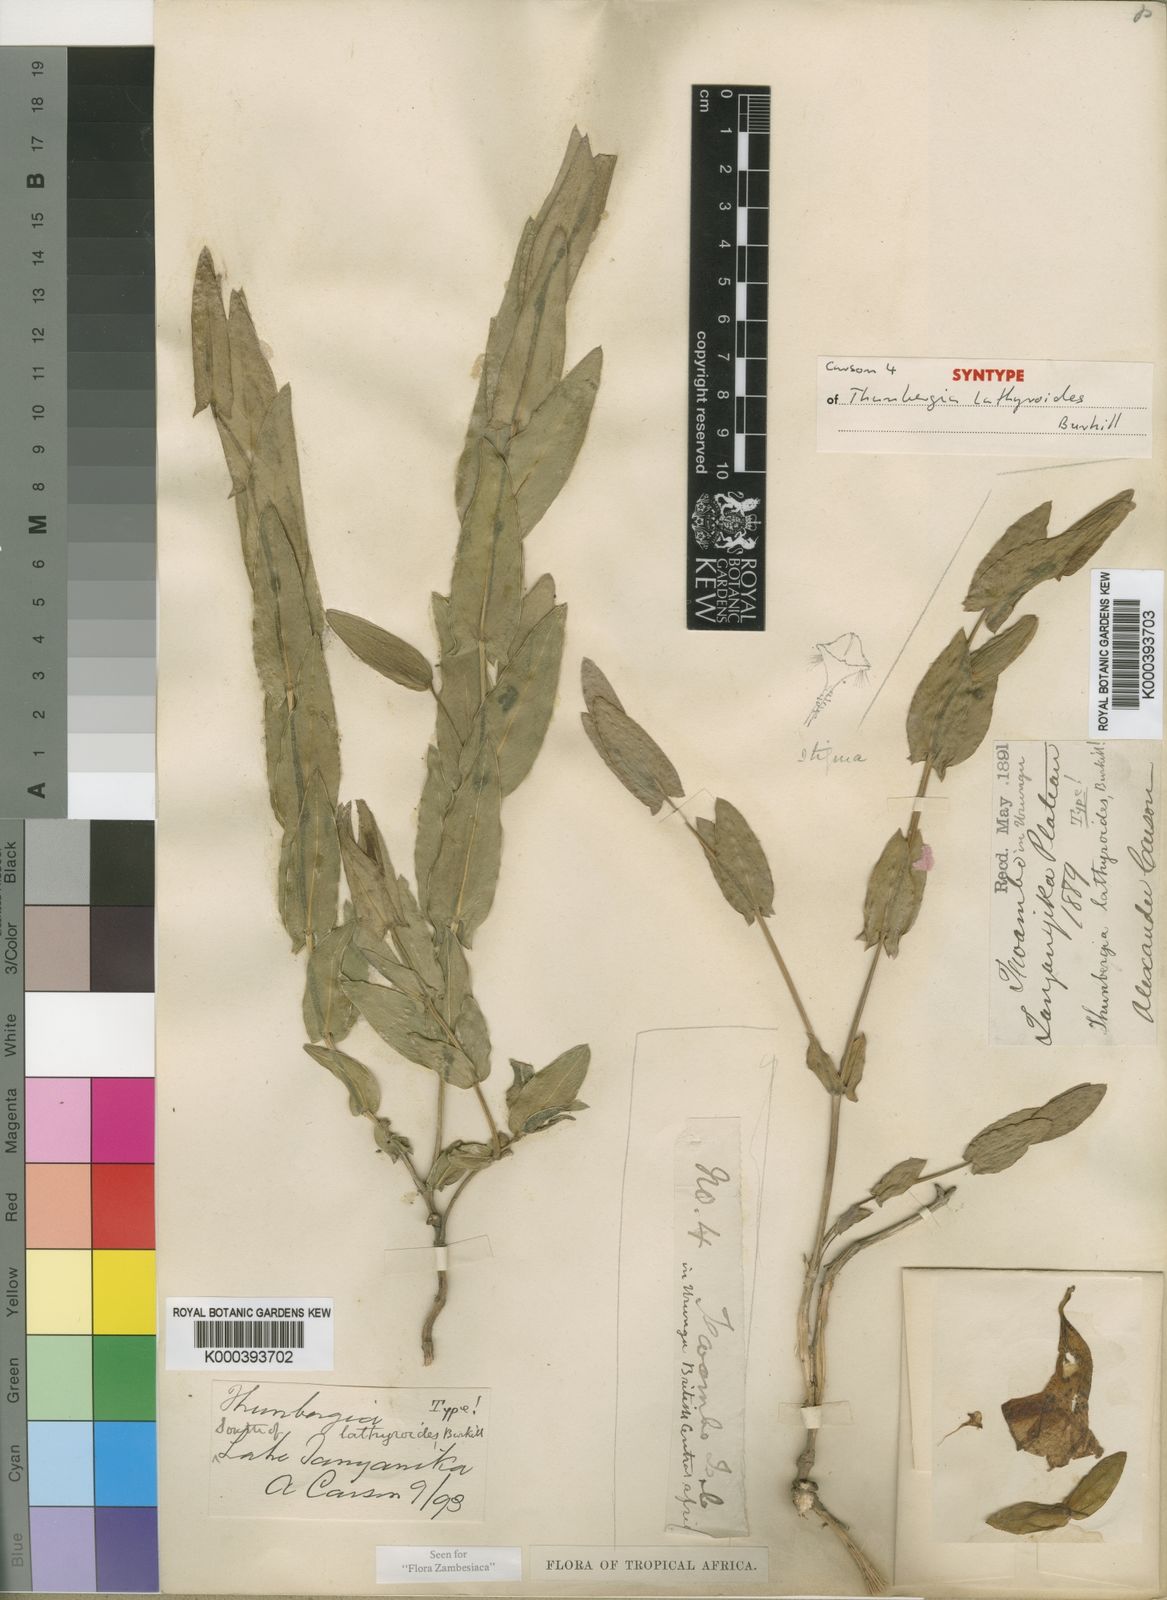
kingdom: Plantae
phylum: Tracheophyta
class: Magnoliopsida
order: Lamiales
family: Acanthaceae
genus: Thunbergia
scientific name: Thunbergia lathyroides
